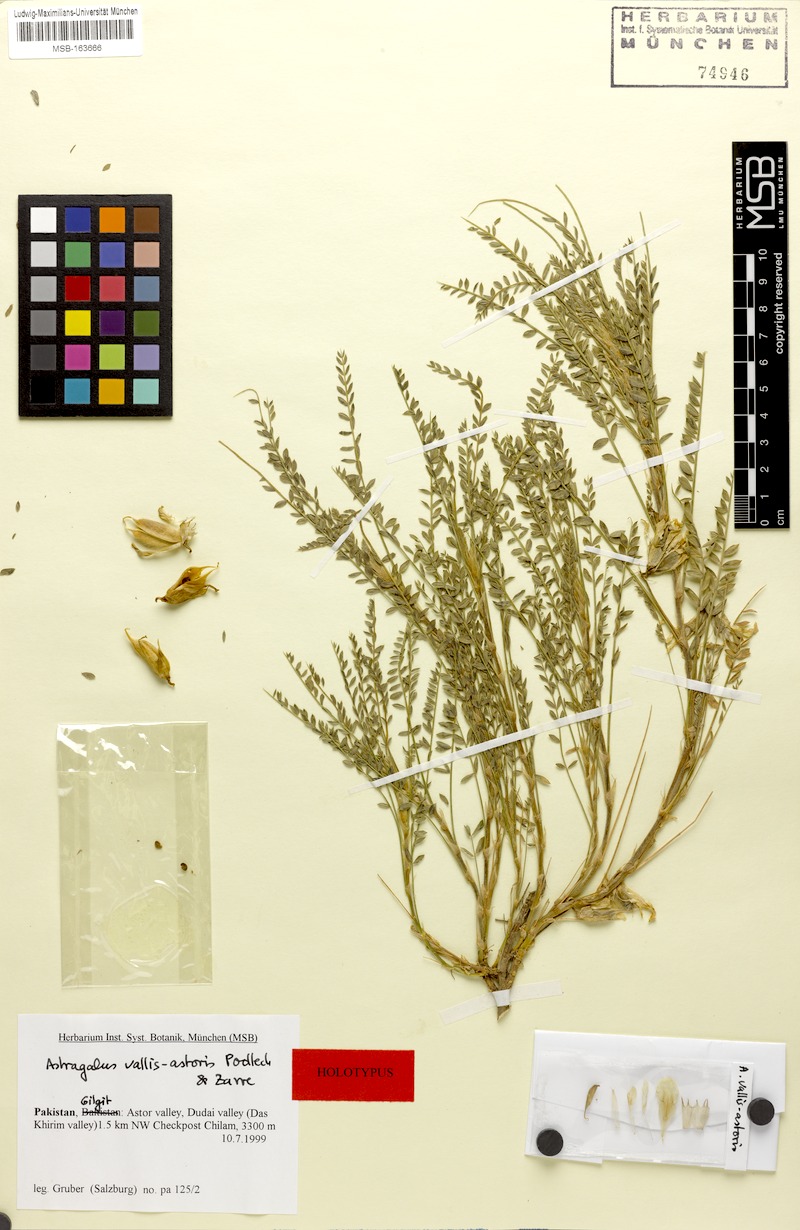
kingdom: Plantae
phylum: Tracheophyta
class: Magnoliopsida
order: Fabales
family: Fabaceae
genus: Astragalus
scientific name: Astragalus vallis-astoris
